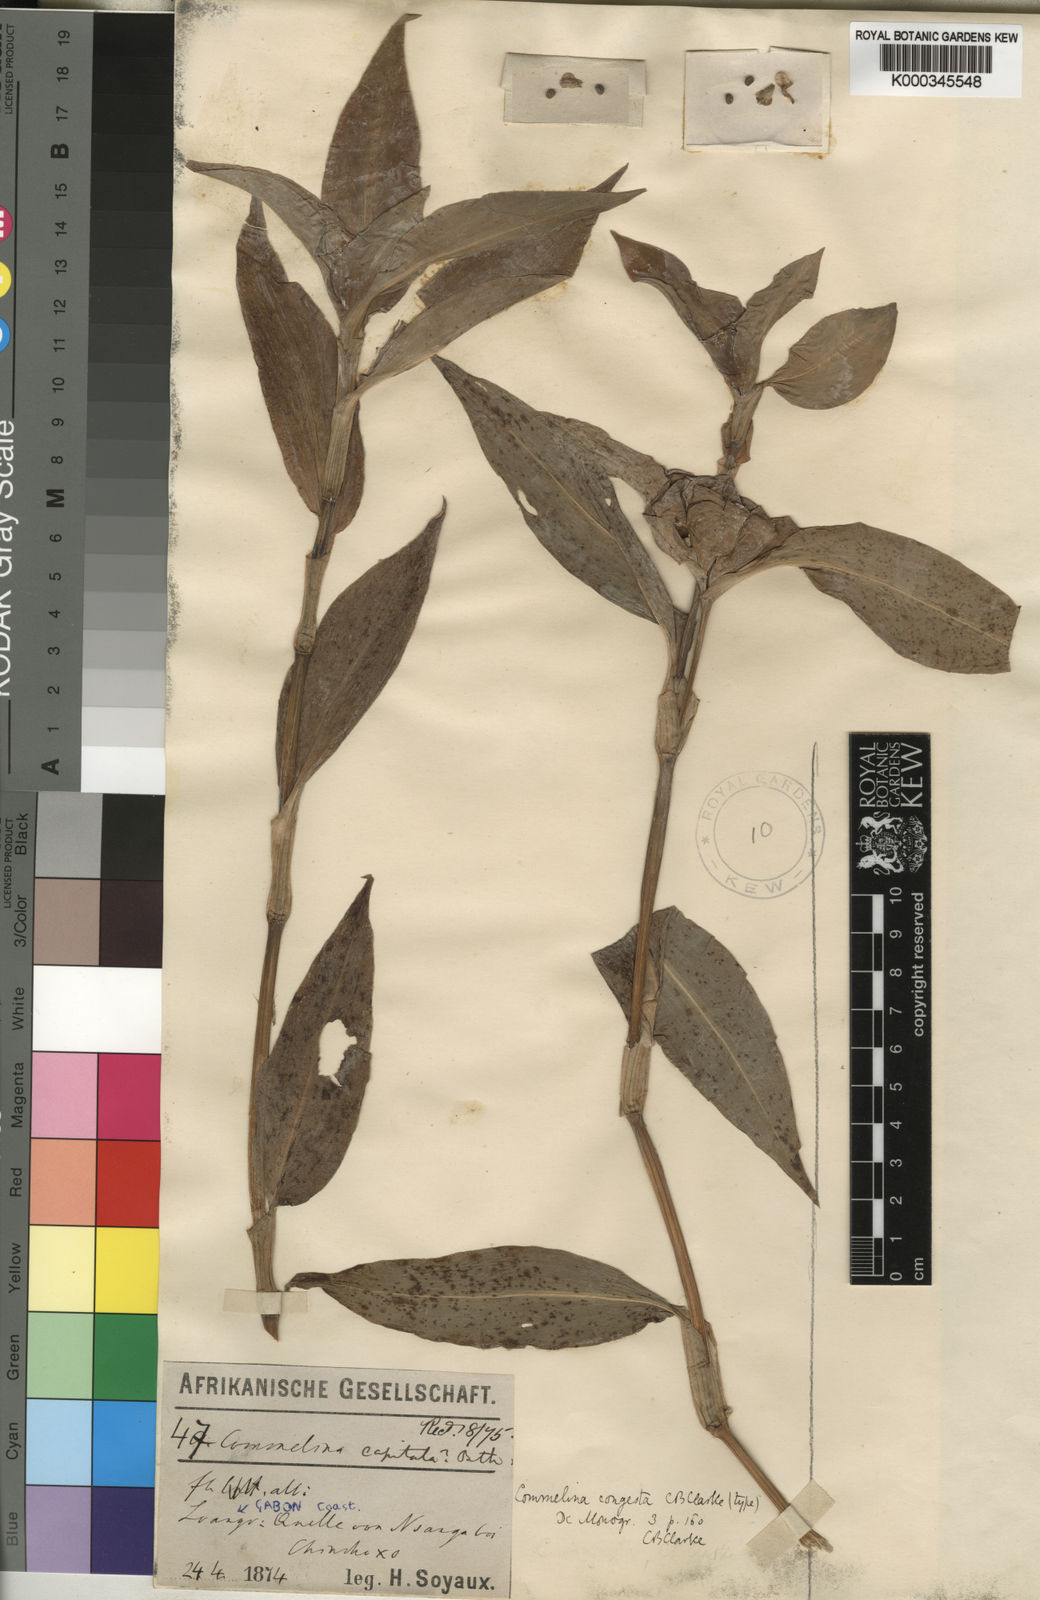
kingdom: Plantae
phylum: Tracheophyta
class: Liliopsida
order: Commelinales
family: Commelinaceae
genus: Commelina
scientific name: Commelina congesta
